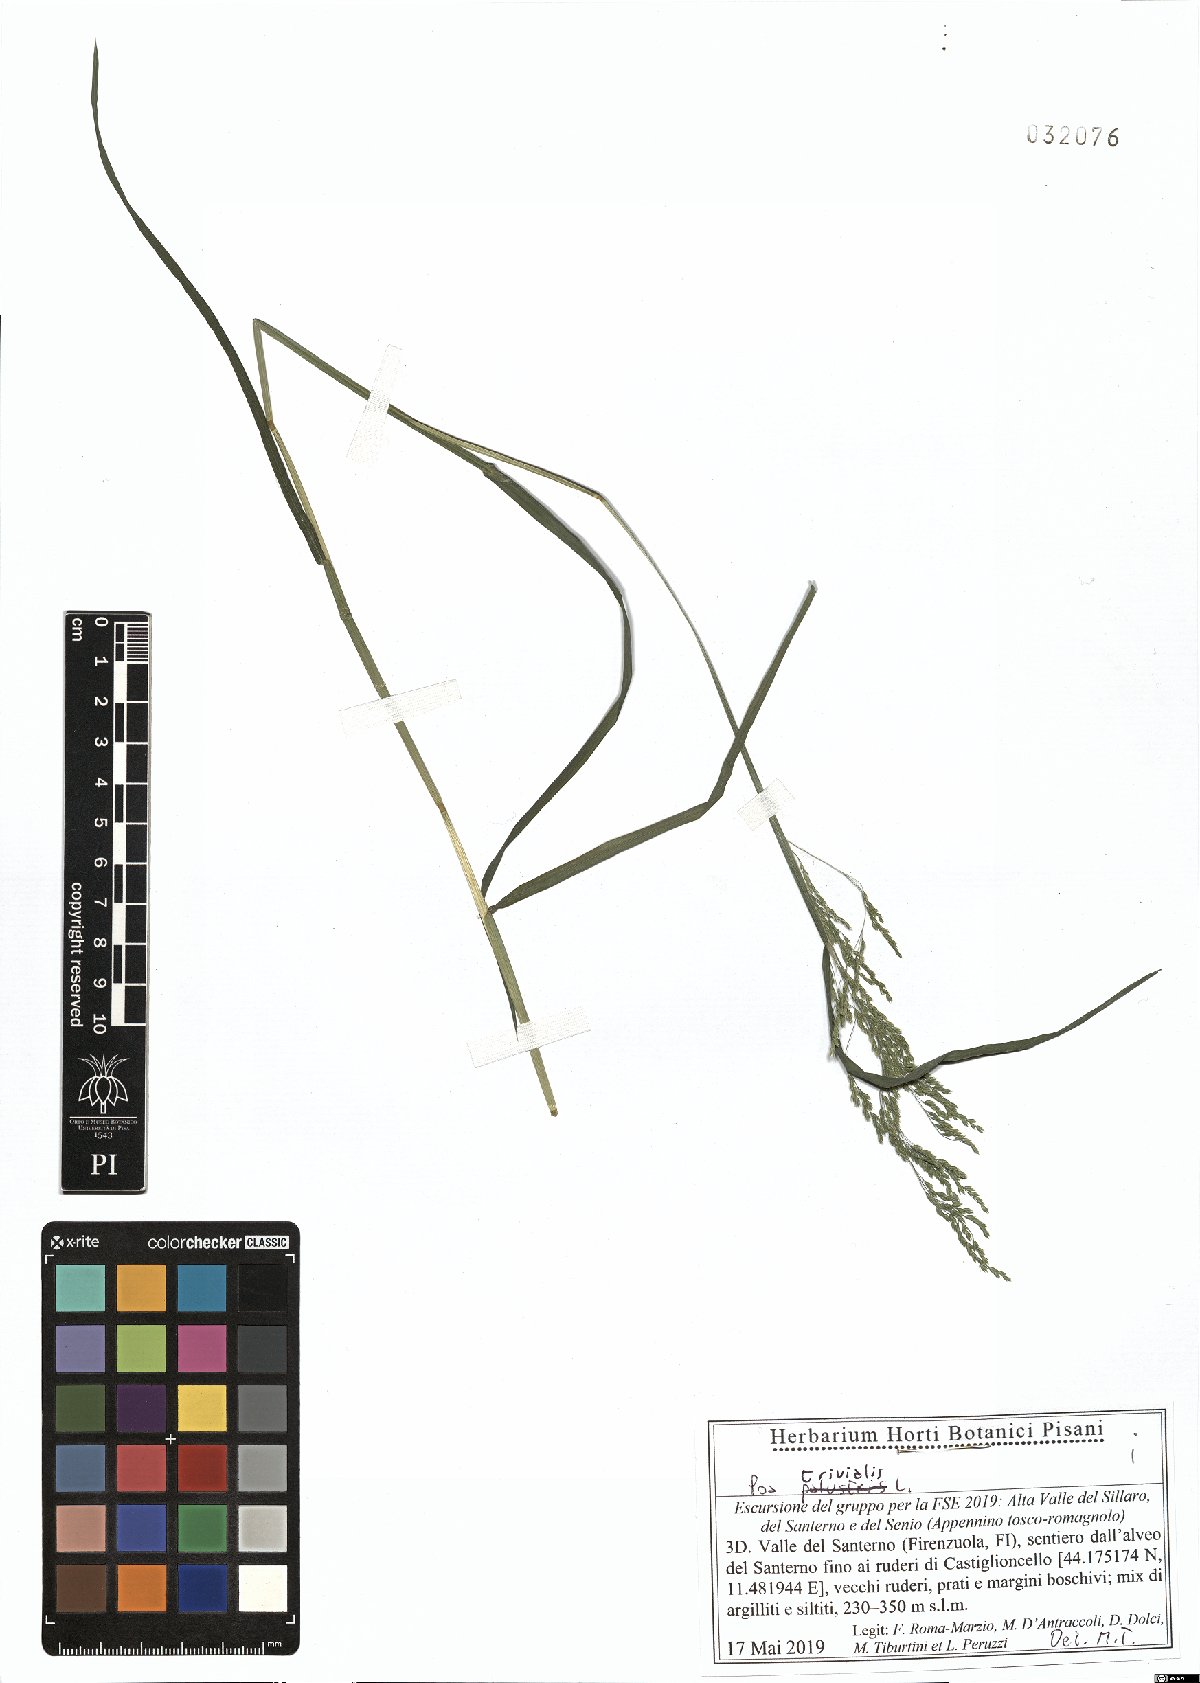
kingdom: Plantae
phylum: Tracheophyta
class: Liliopsida
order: Poales
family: Poaceae
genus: Poa
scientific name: Poa trivialis
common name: Rough bluegrass
